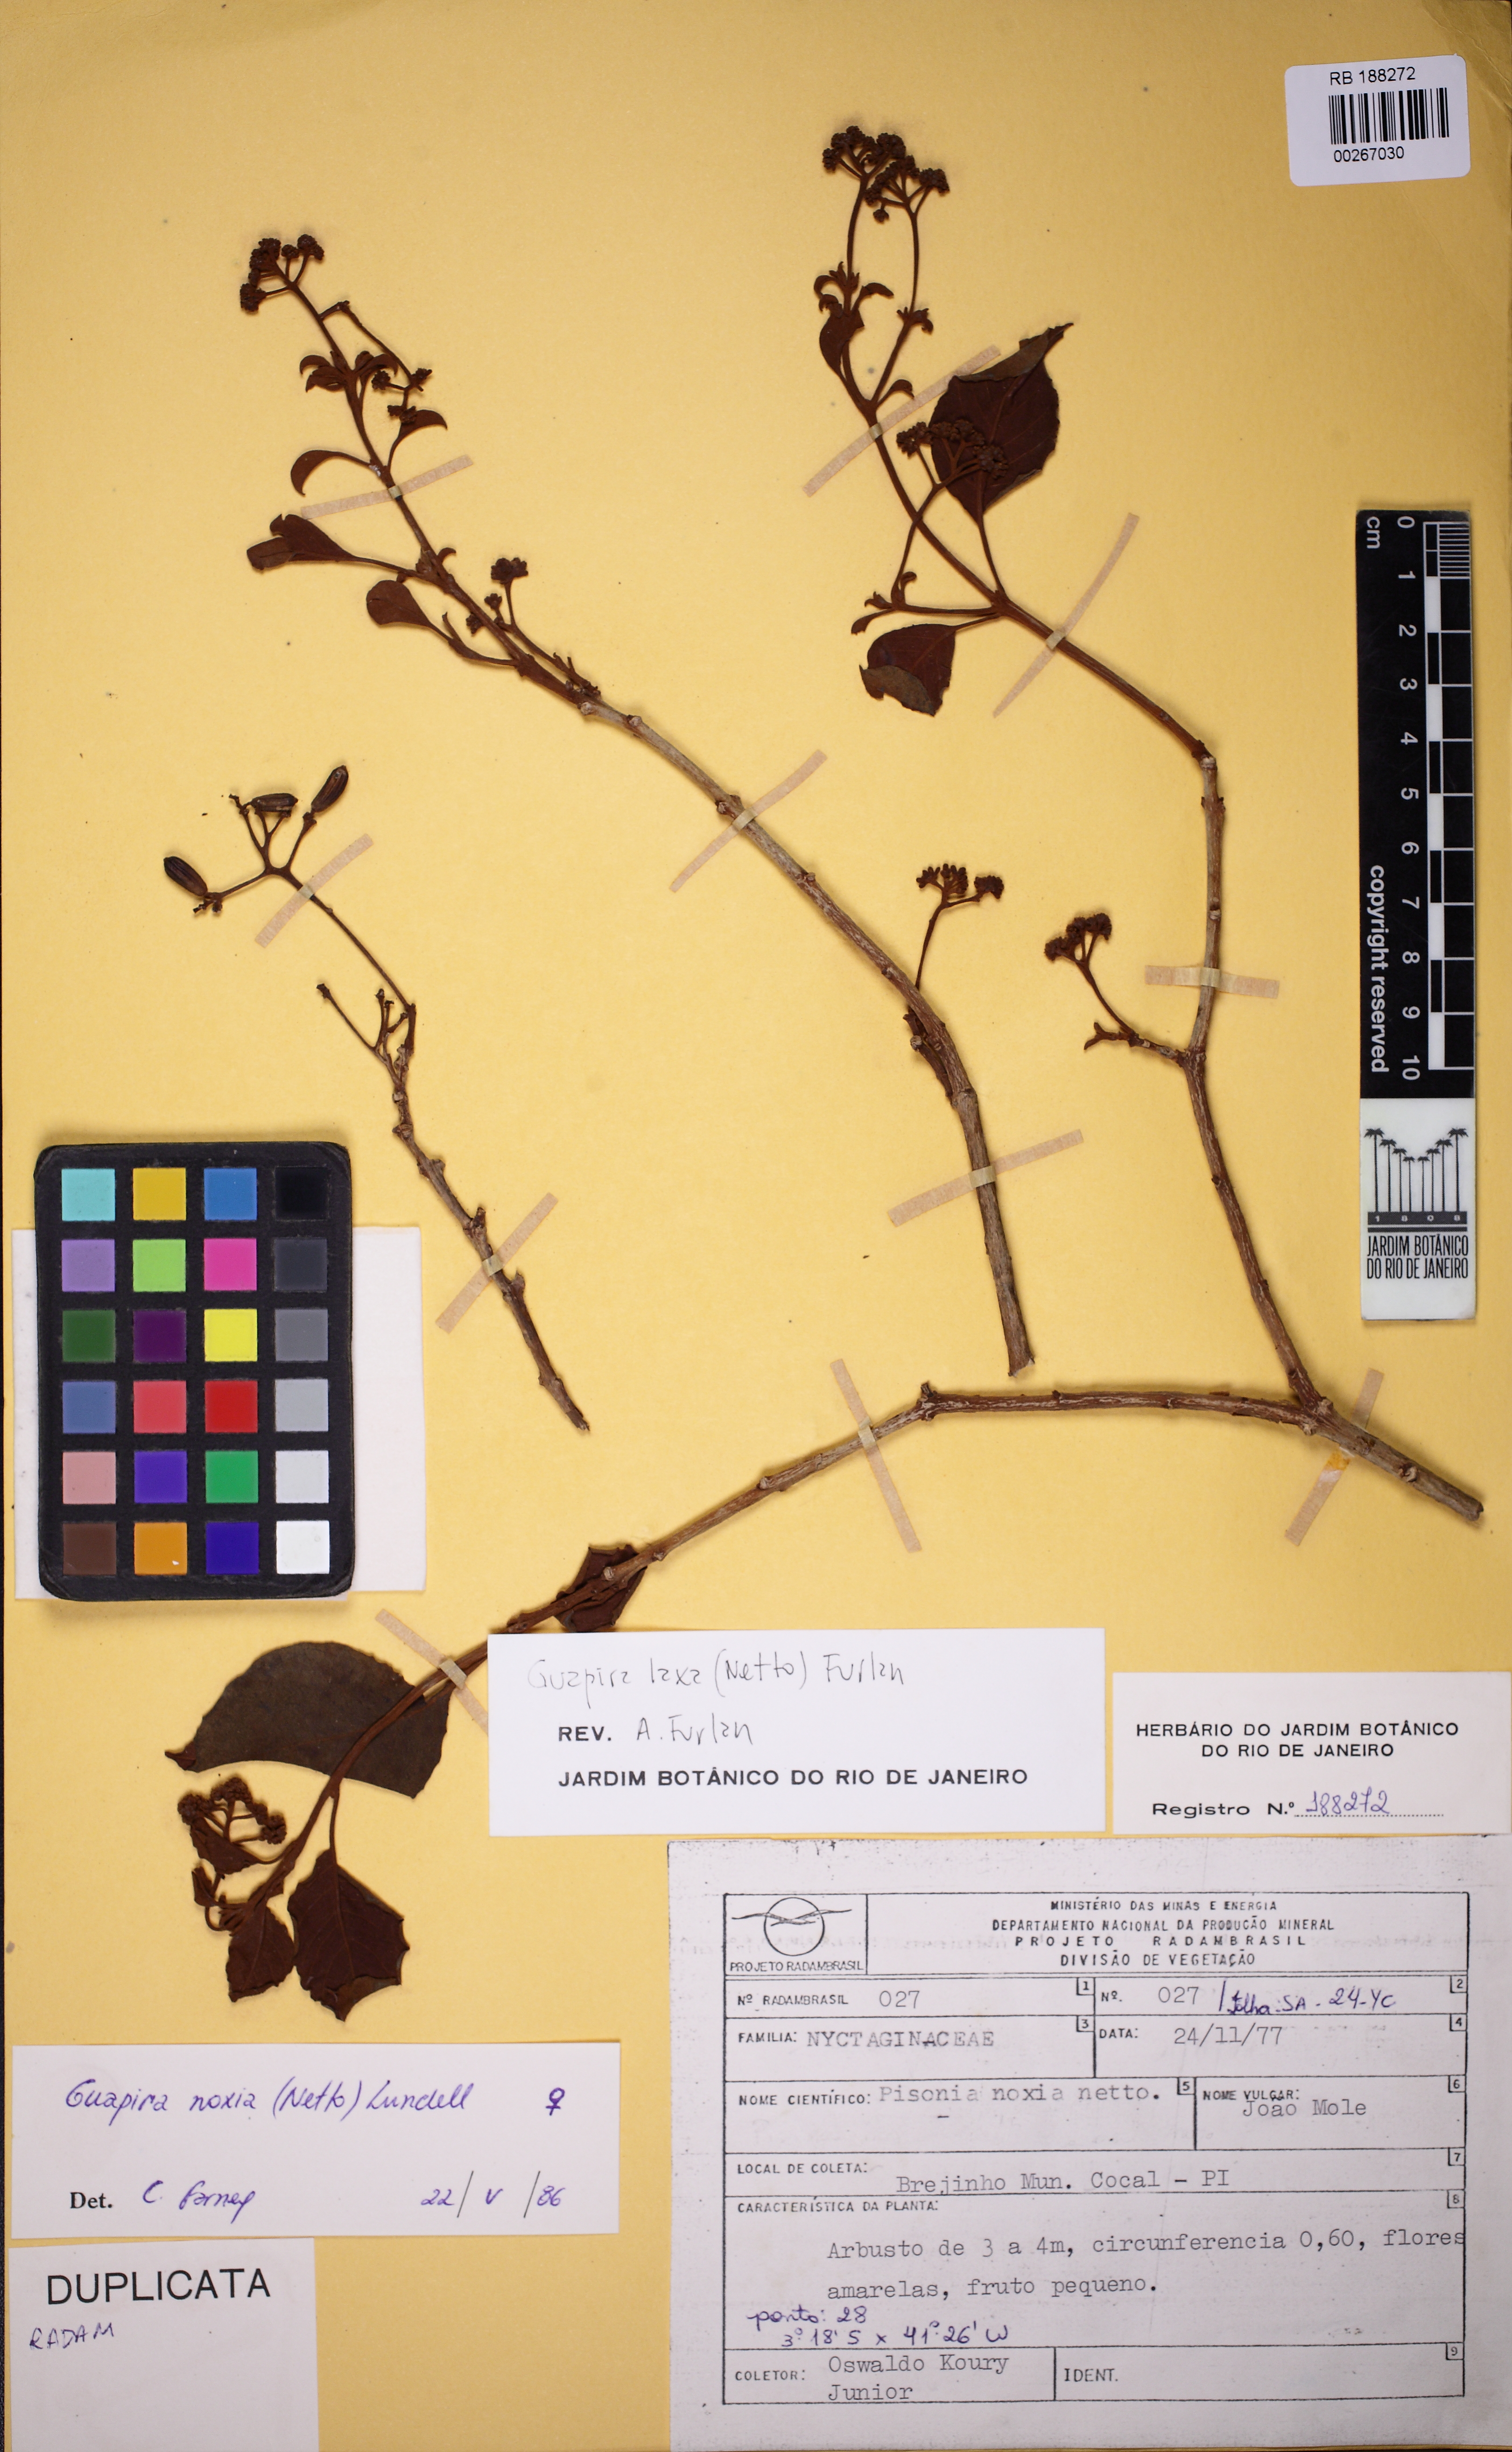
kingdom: Plantae
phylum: Tracheophyta
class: Magnoliopsida
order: Caryophyllales
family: Nyctaginaceae
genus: Guapira
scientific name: Guapira laxa
